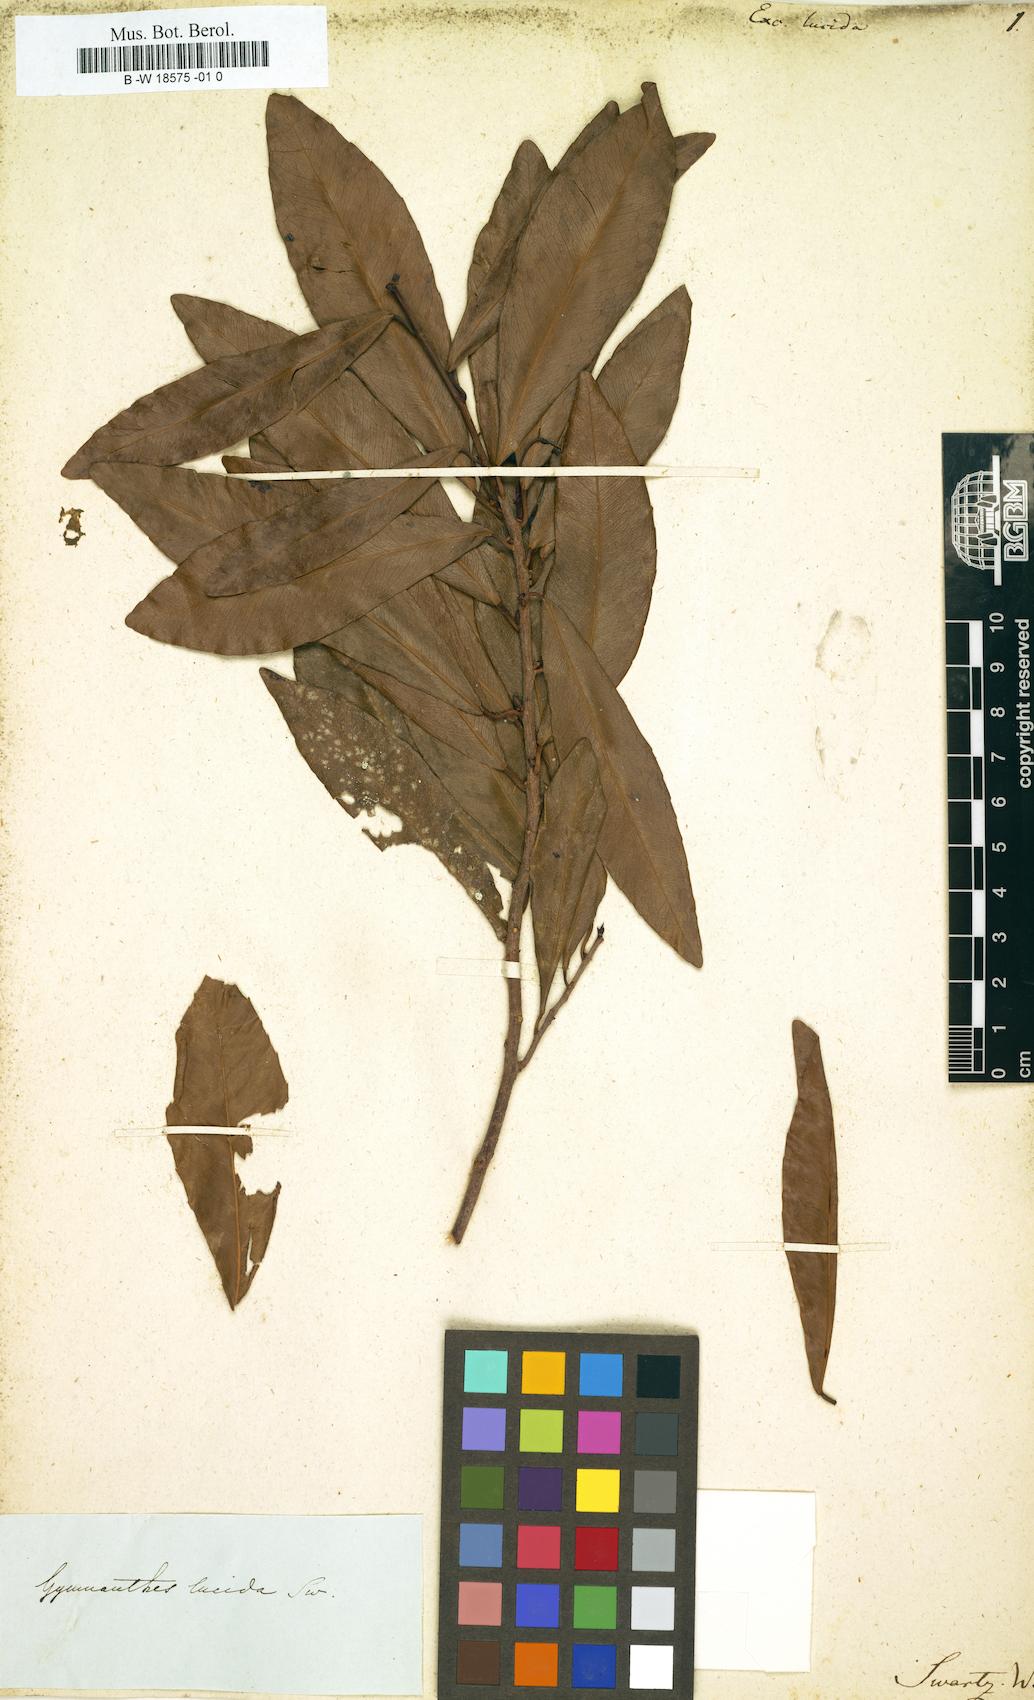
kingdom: Plantae
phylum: Tracheophyta
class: Magnoliopsida
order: Malpighiales
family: Euphorbiaceae
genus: Gymnanthes
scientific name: Gymnanthes lucida
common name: Oysterwood
